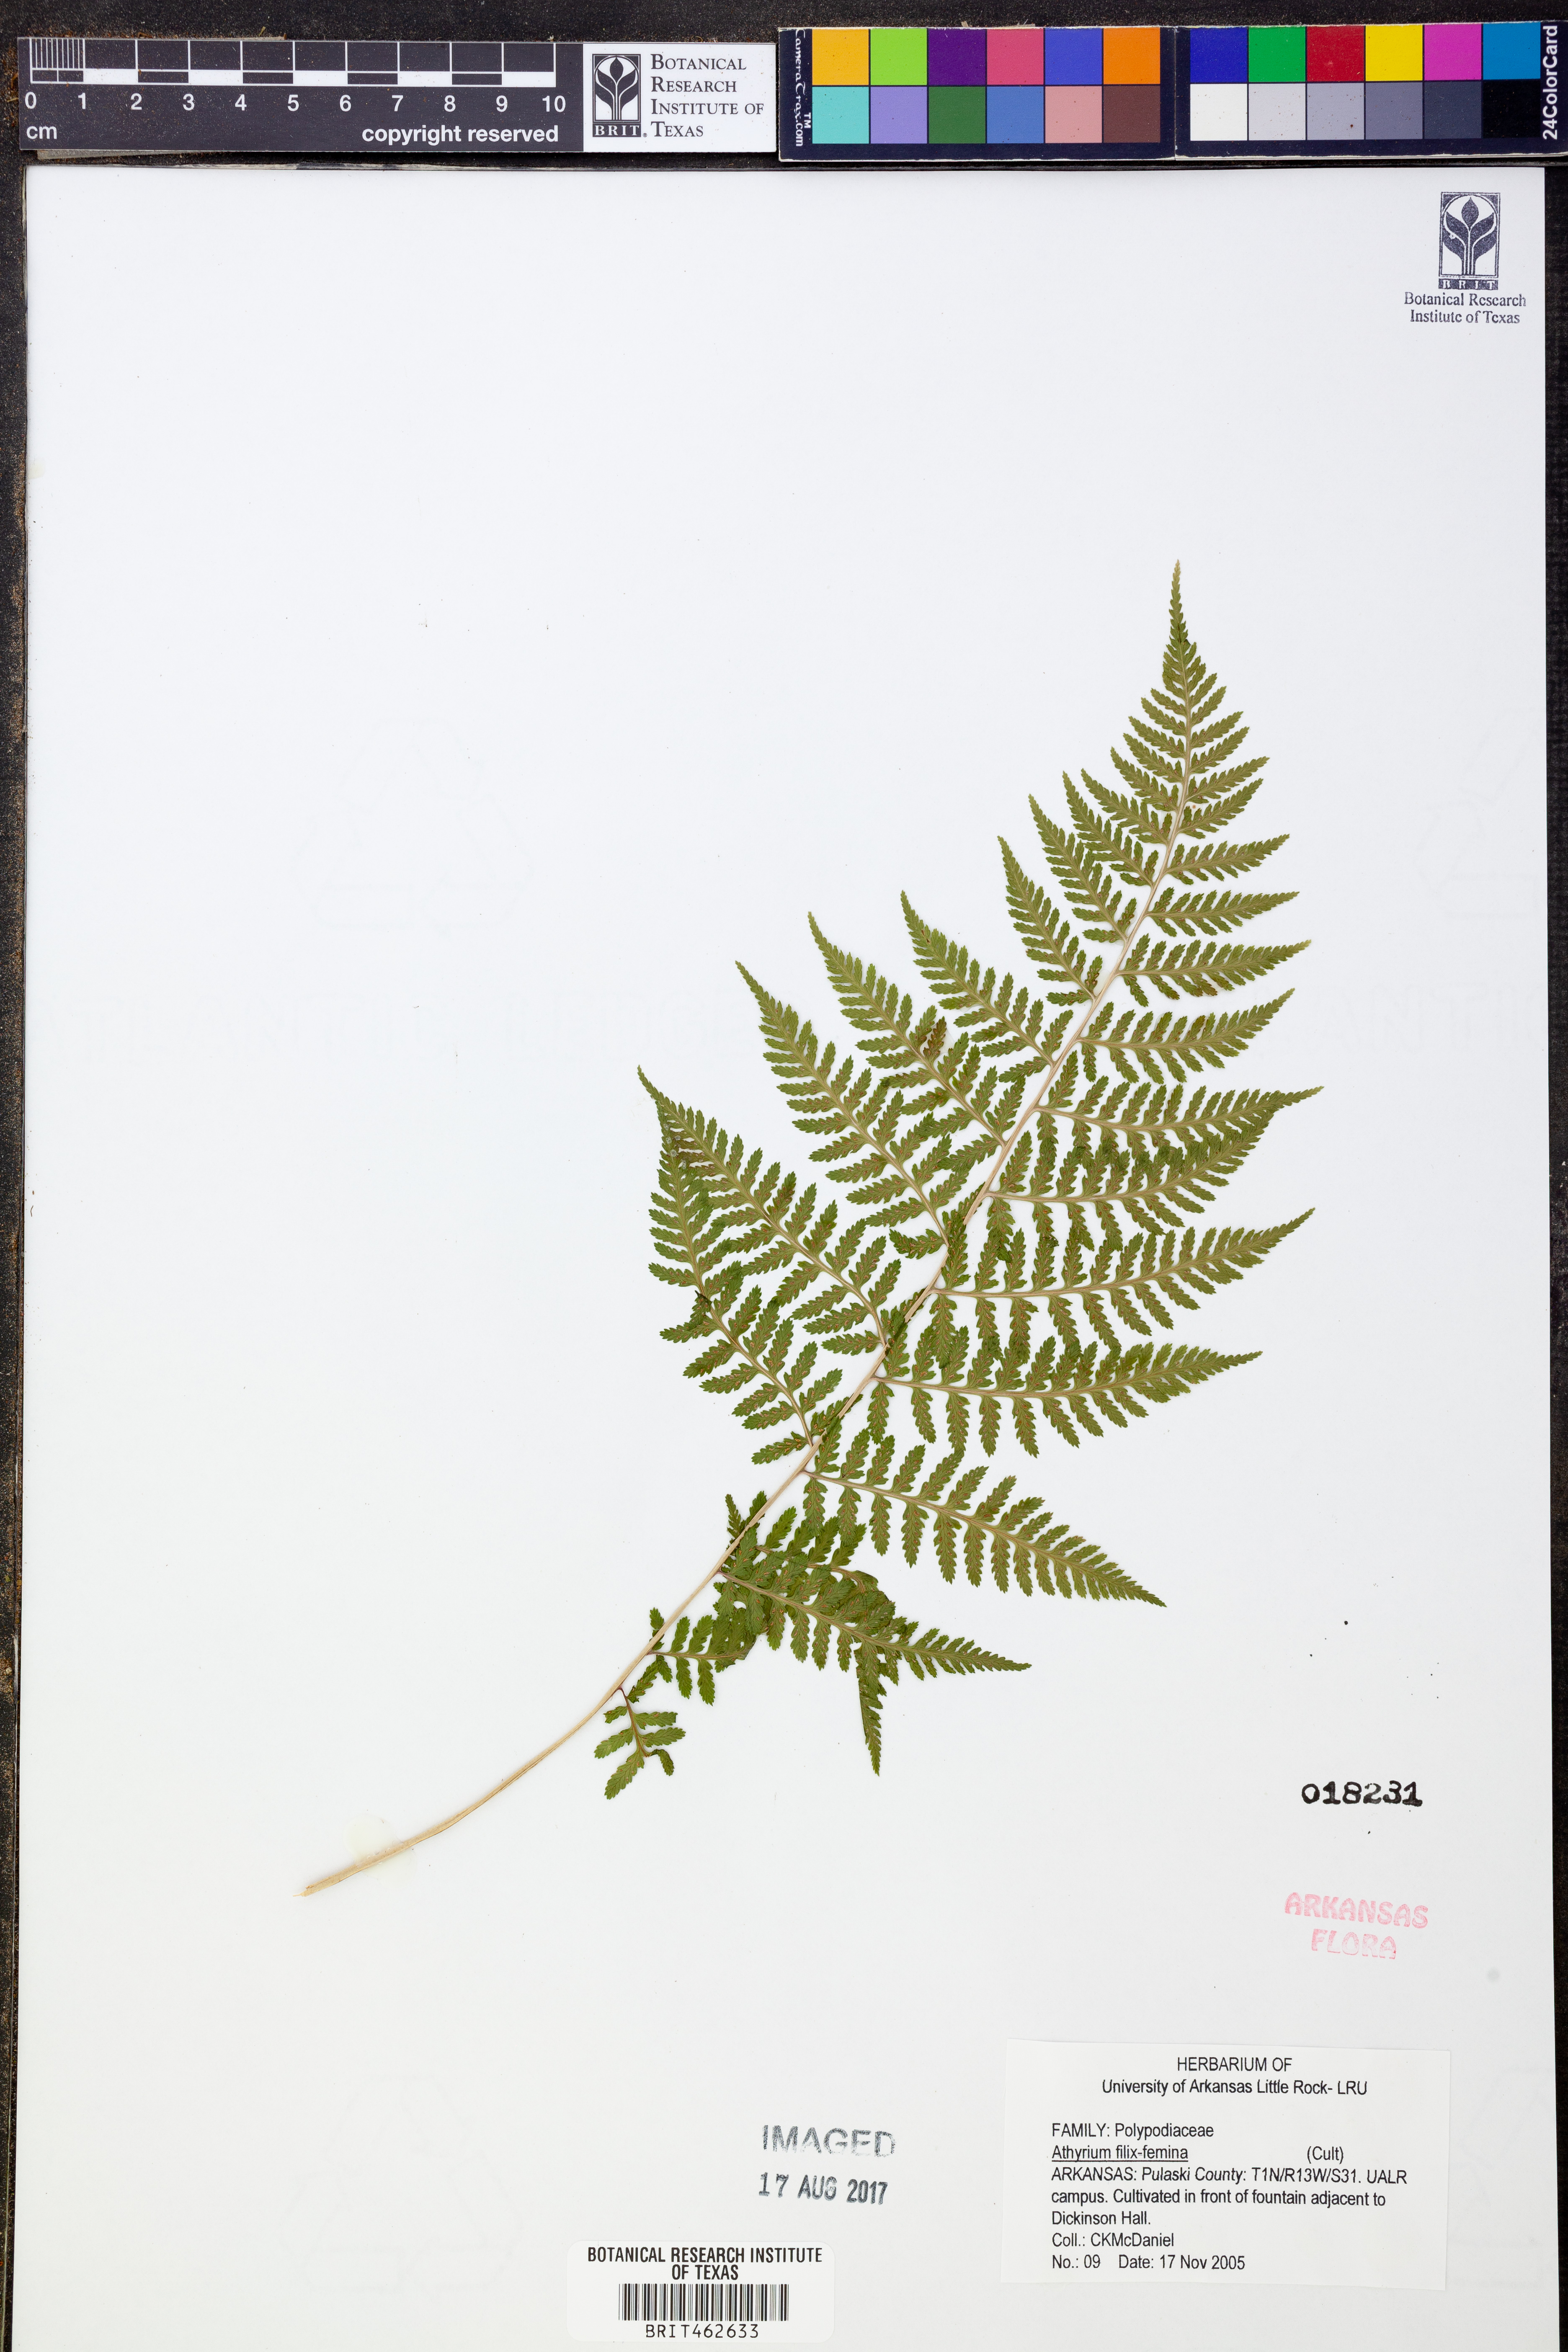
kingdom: Plantae
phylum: Tracheophyta
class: Polypodiopsida
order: Polypodiales
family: Athyriaceae
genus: Athyrium
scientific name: Athyrium filix-femina
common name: Lady fern
